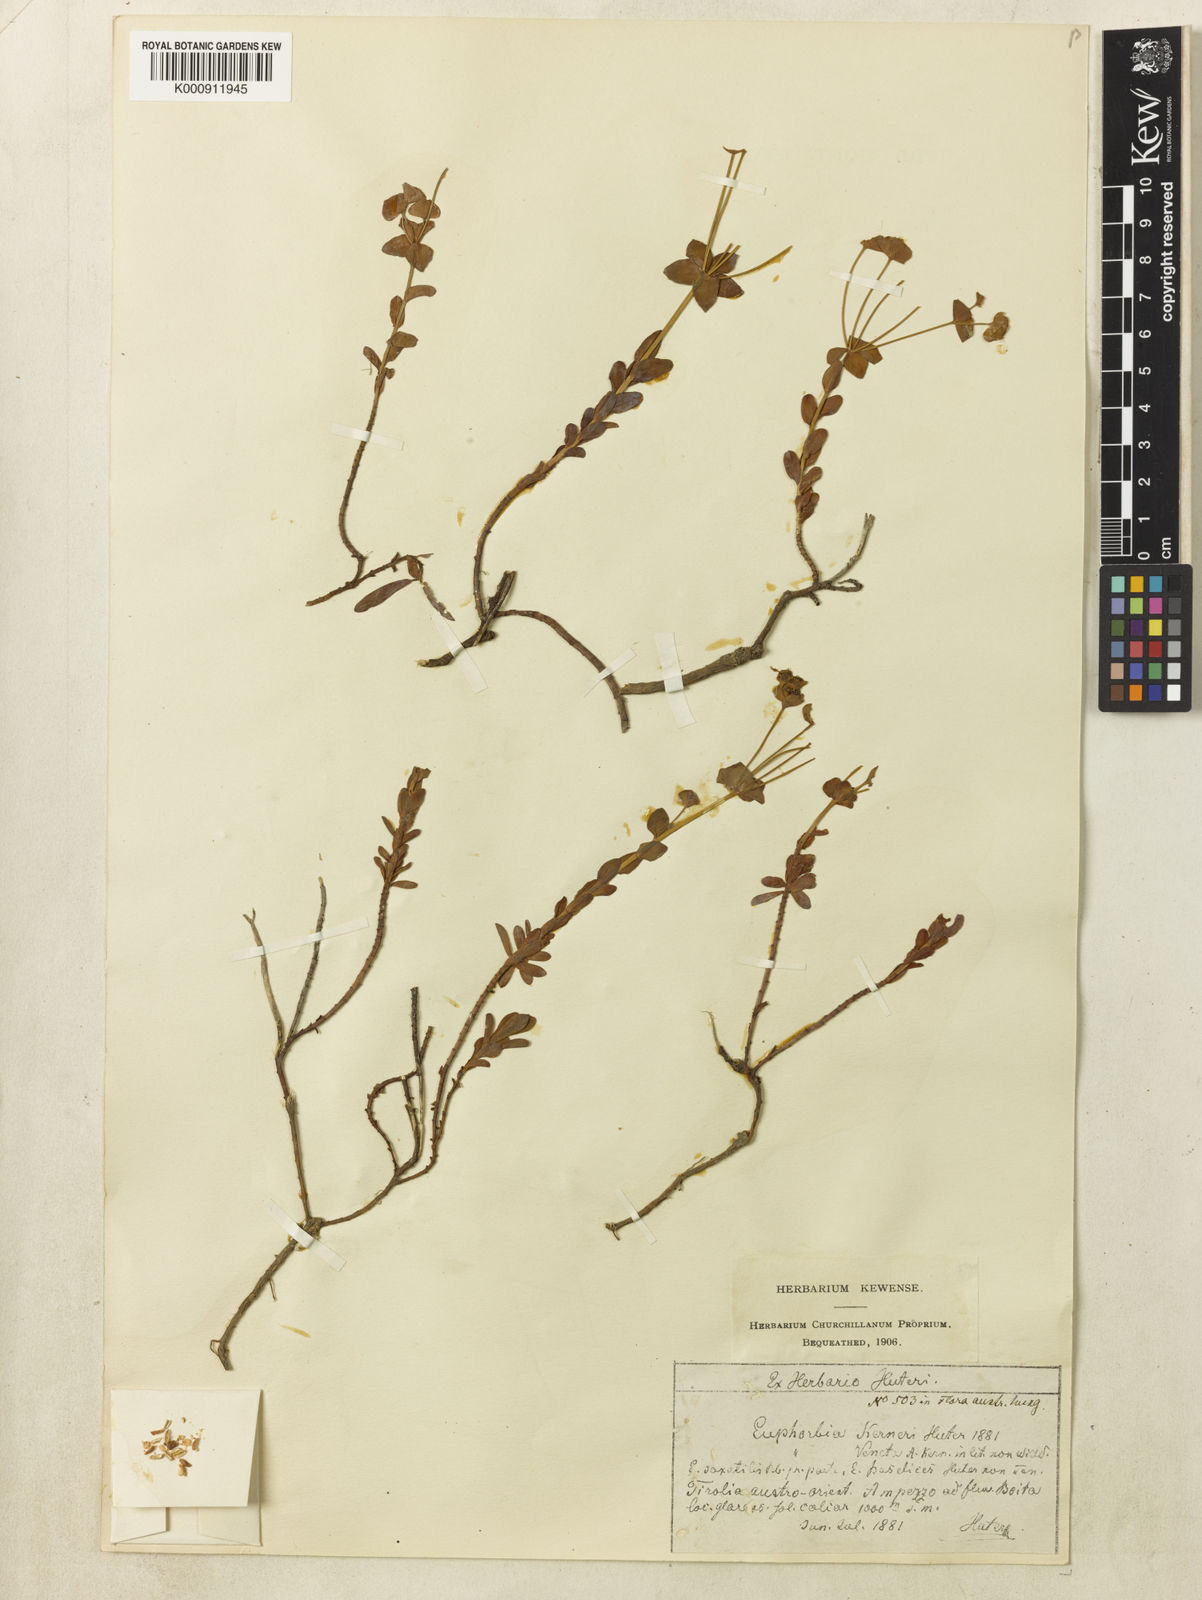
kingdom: Plantae
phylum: Tracheophyta
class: Magnoliopsida
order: Malpighiales
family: Euphorbiaceae
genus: Euphorbia
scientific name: Euphorbia kerneri
